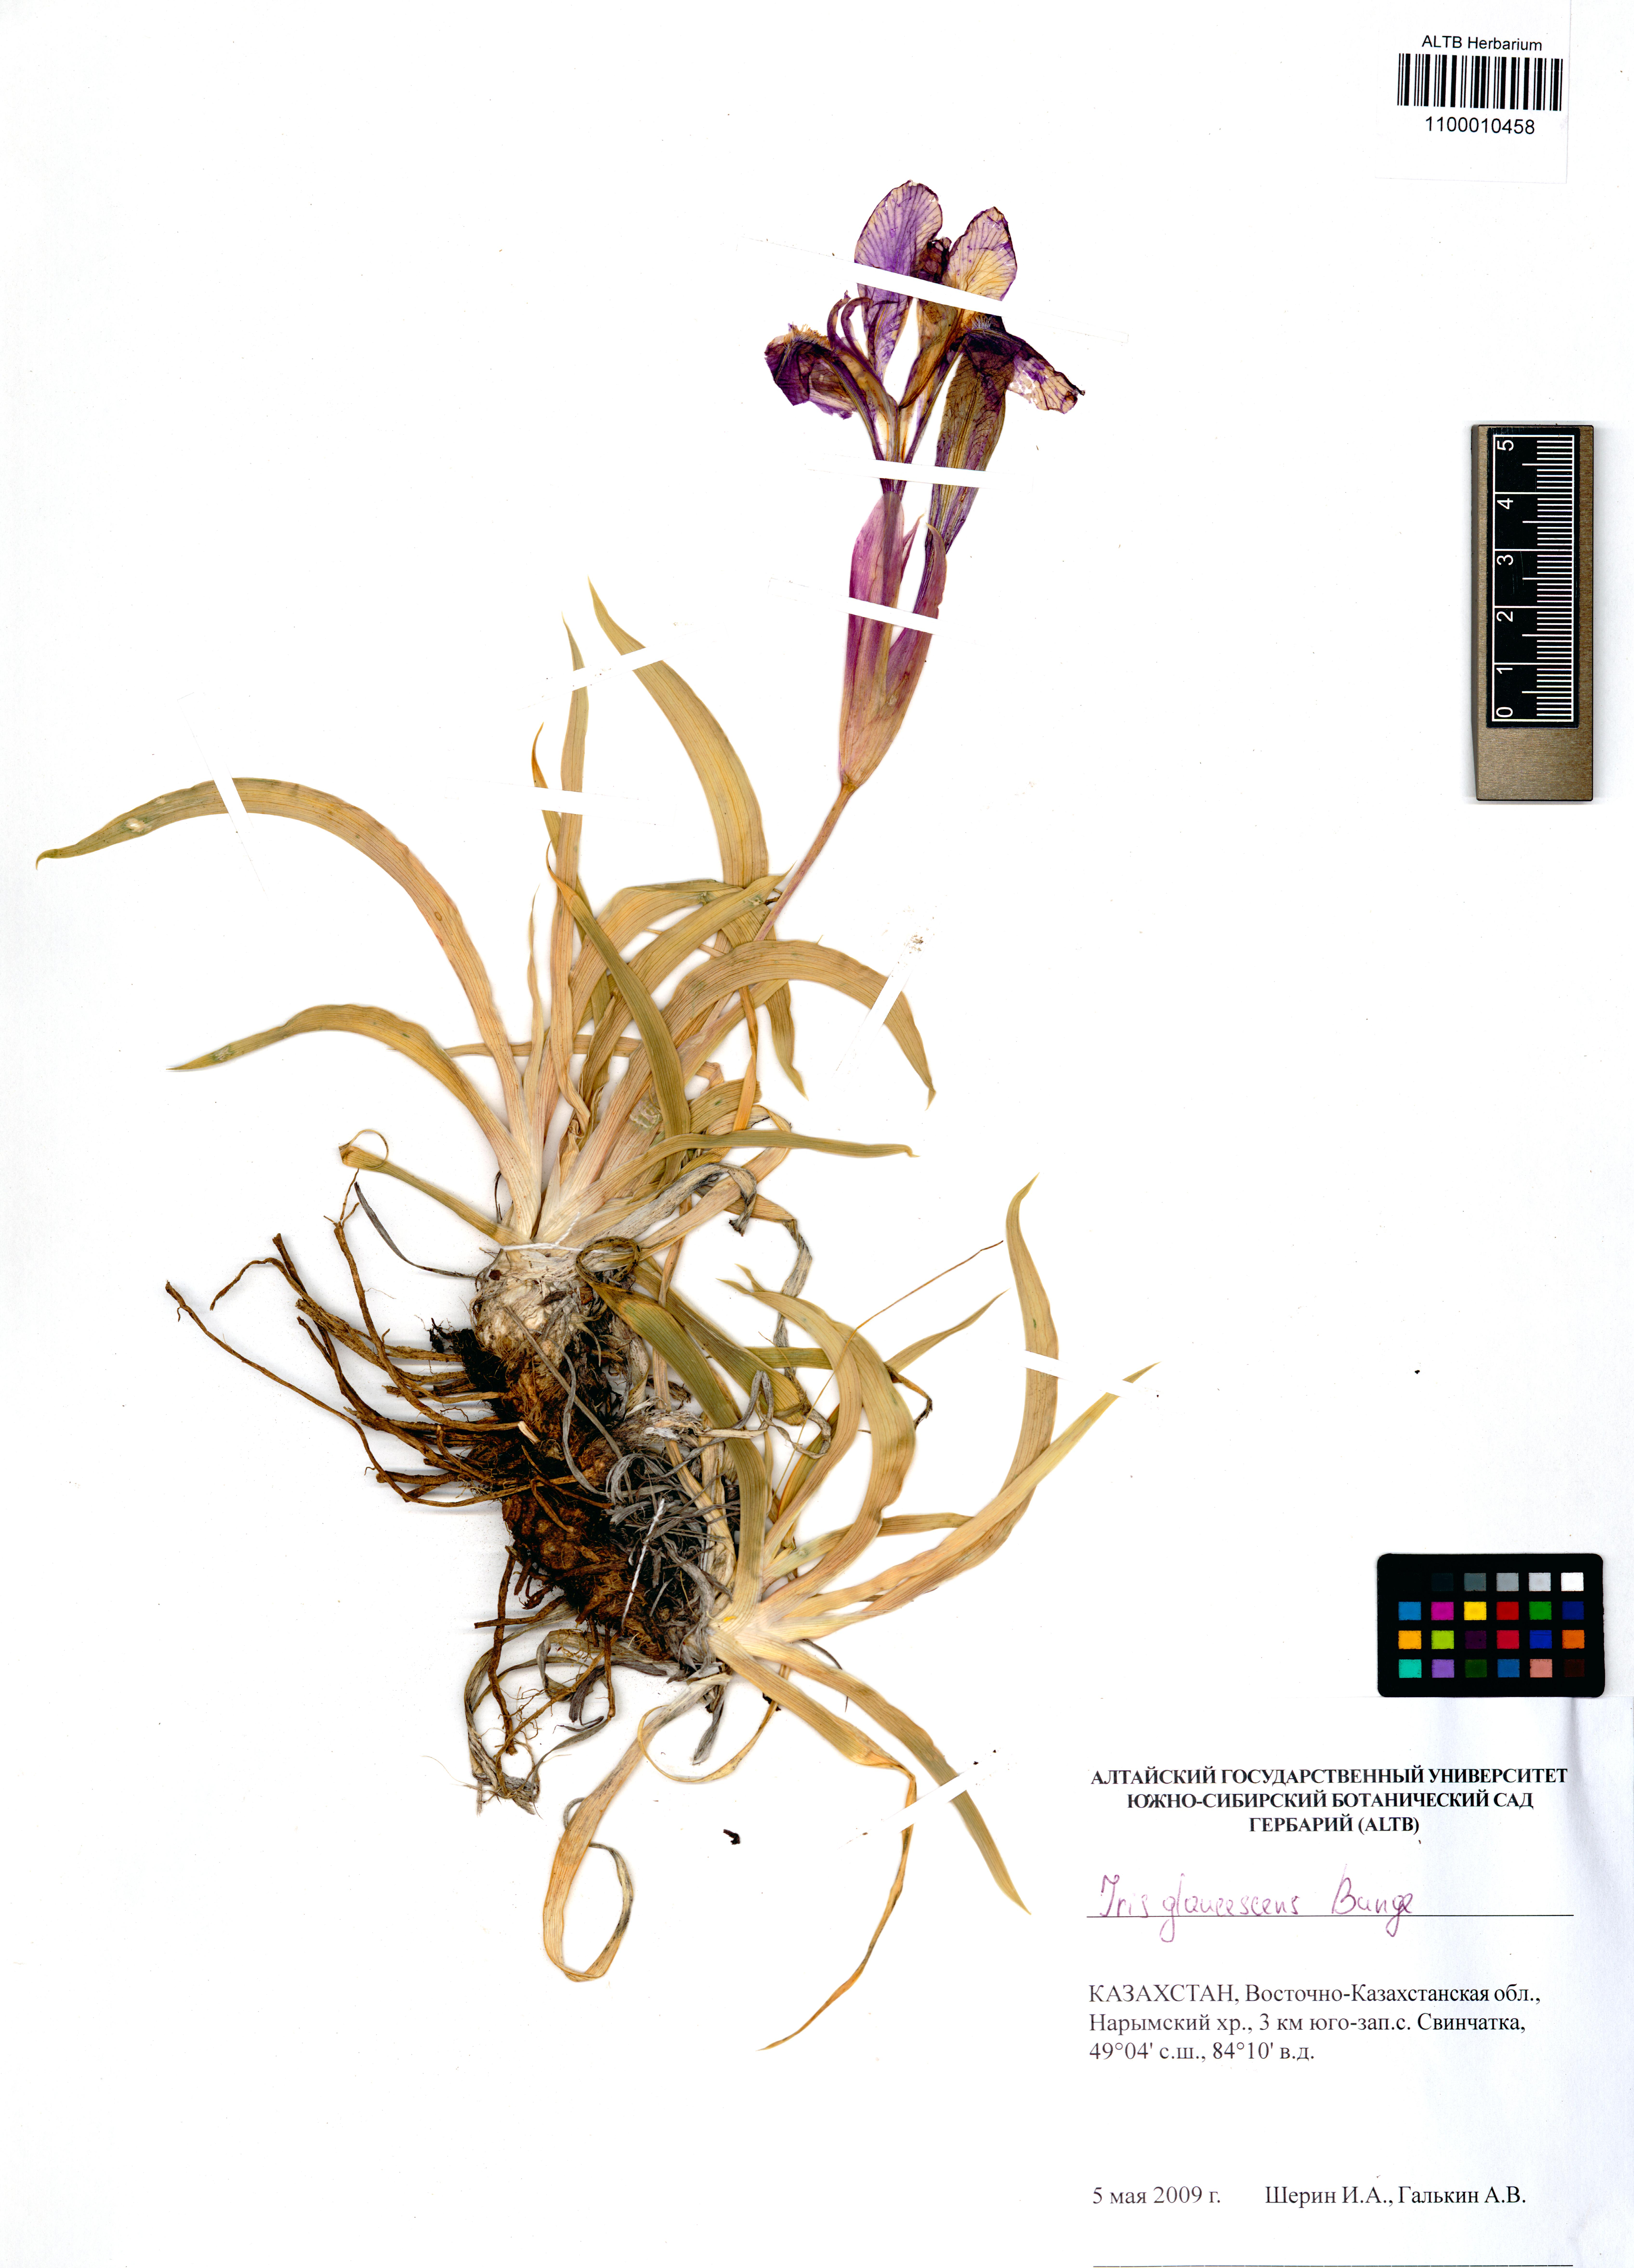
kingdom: Plantae
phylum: Tracheophyta
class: Liliopsida
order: Asparagales
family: Iridaceae
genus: Iris
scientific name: Iris glaucescens
